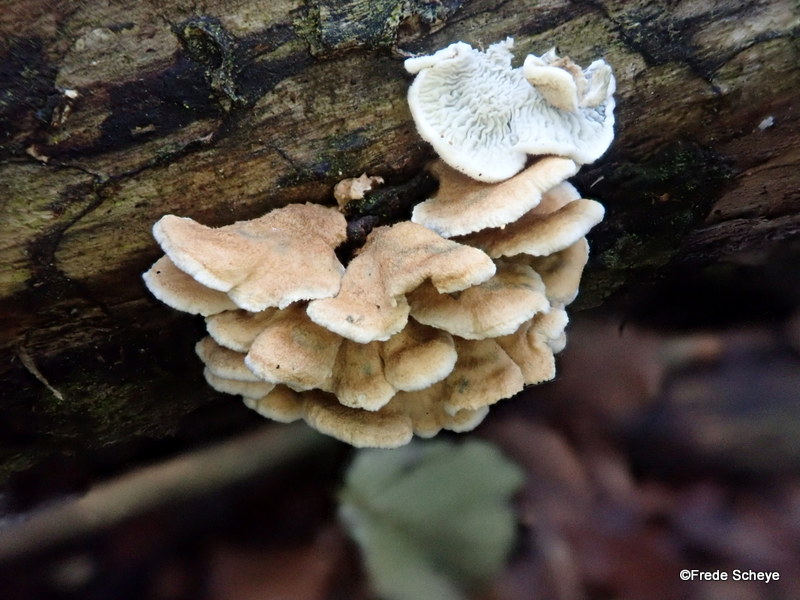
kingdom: Fungi
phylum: Basidiomycota
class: Agaricomycetes
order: Amylocorticiales
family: Amylocorticiaceae
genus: Plicaturopsis
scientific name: Plicaturopsis crispa
